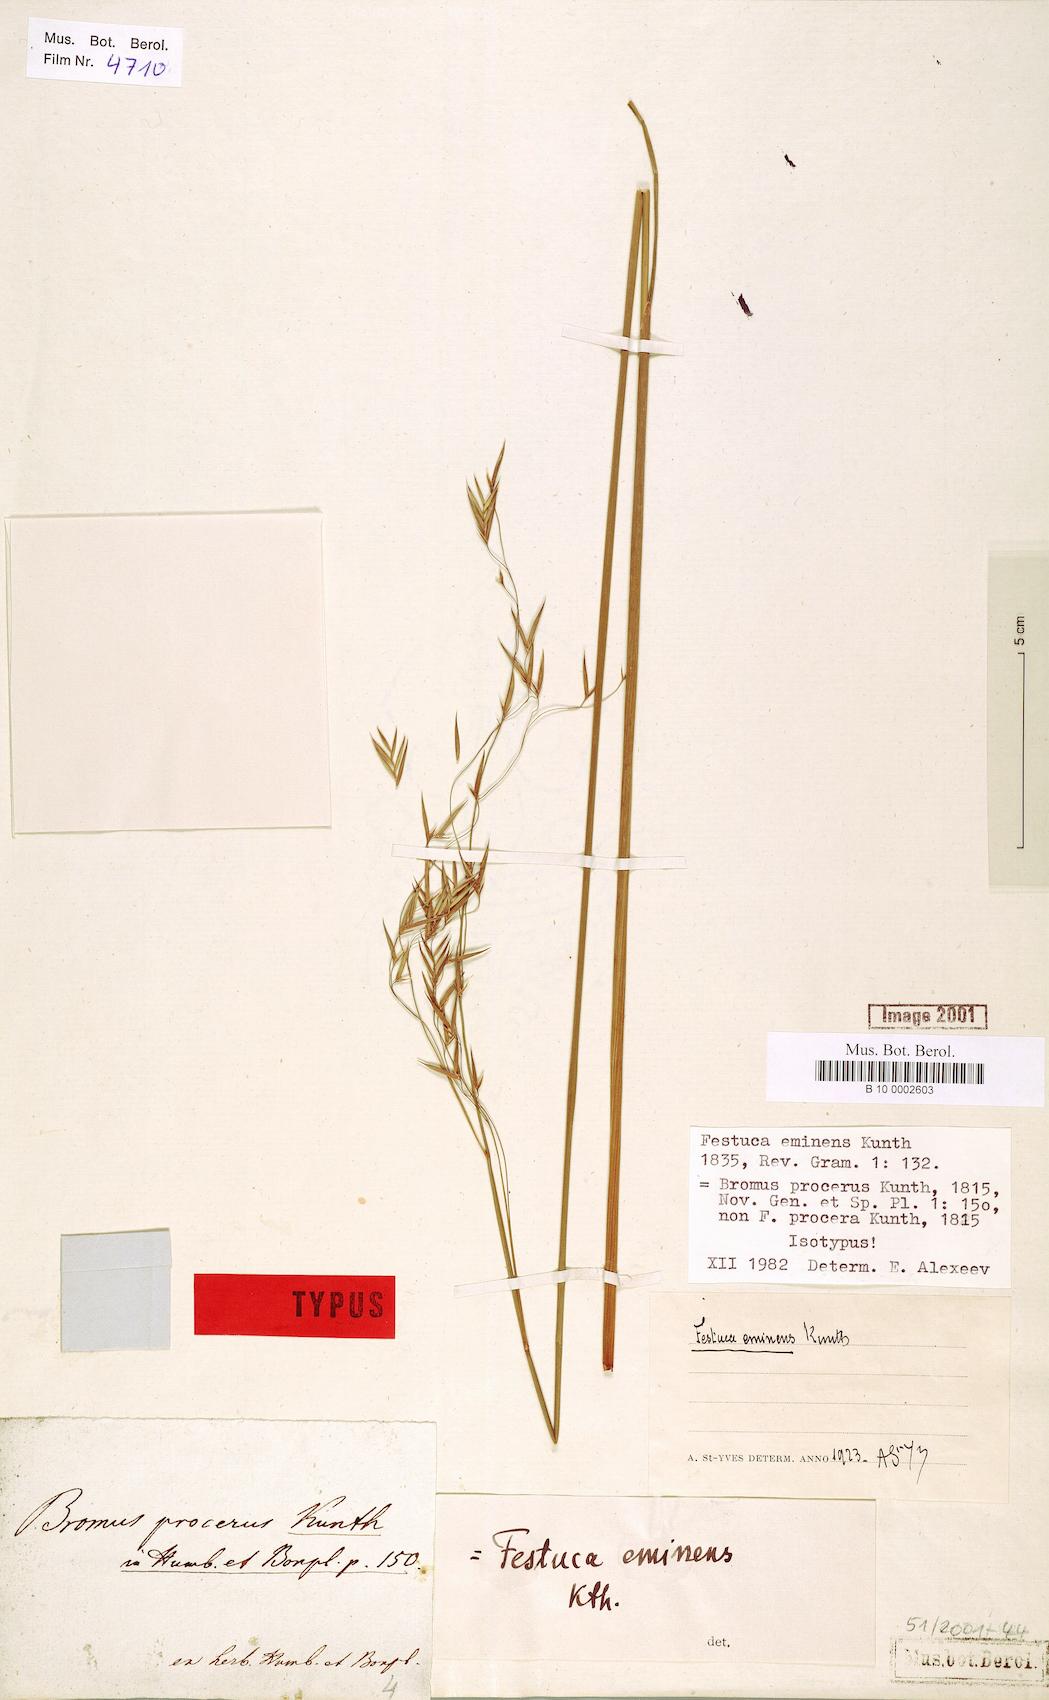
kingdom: Plantae
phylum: Tracheophyta
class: Liliopsida
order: Poales
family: Poaceae
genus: Festuca
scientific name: Festuca caldasii
